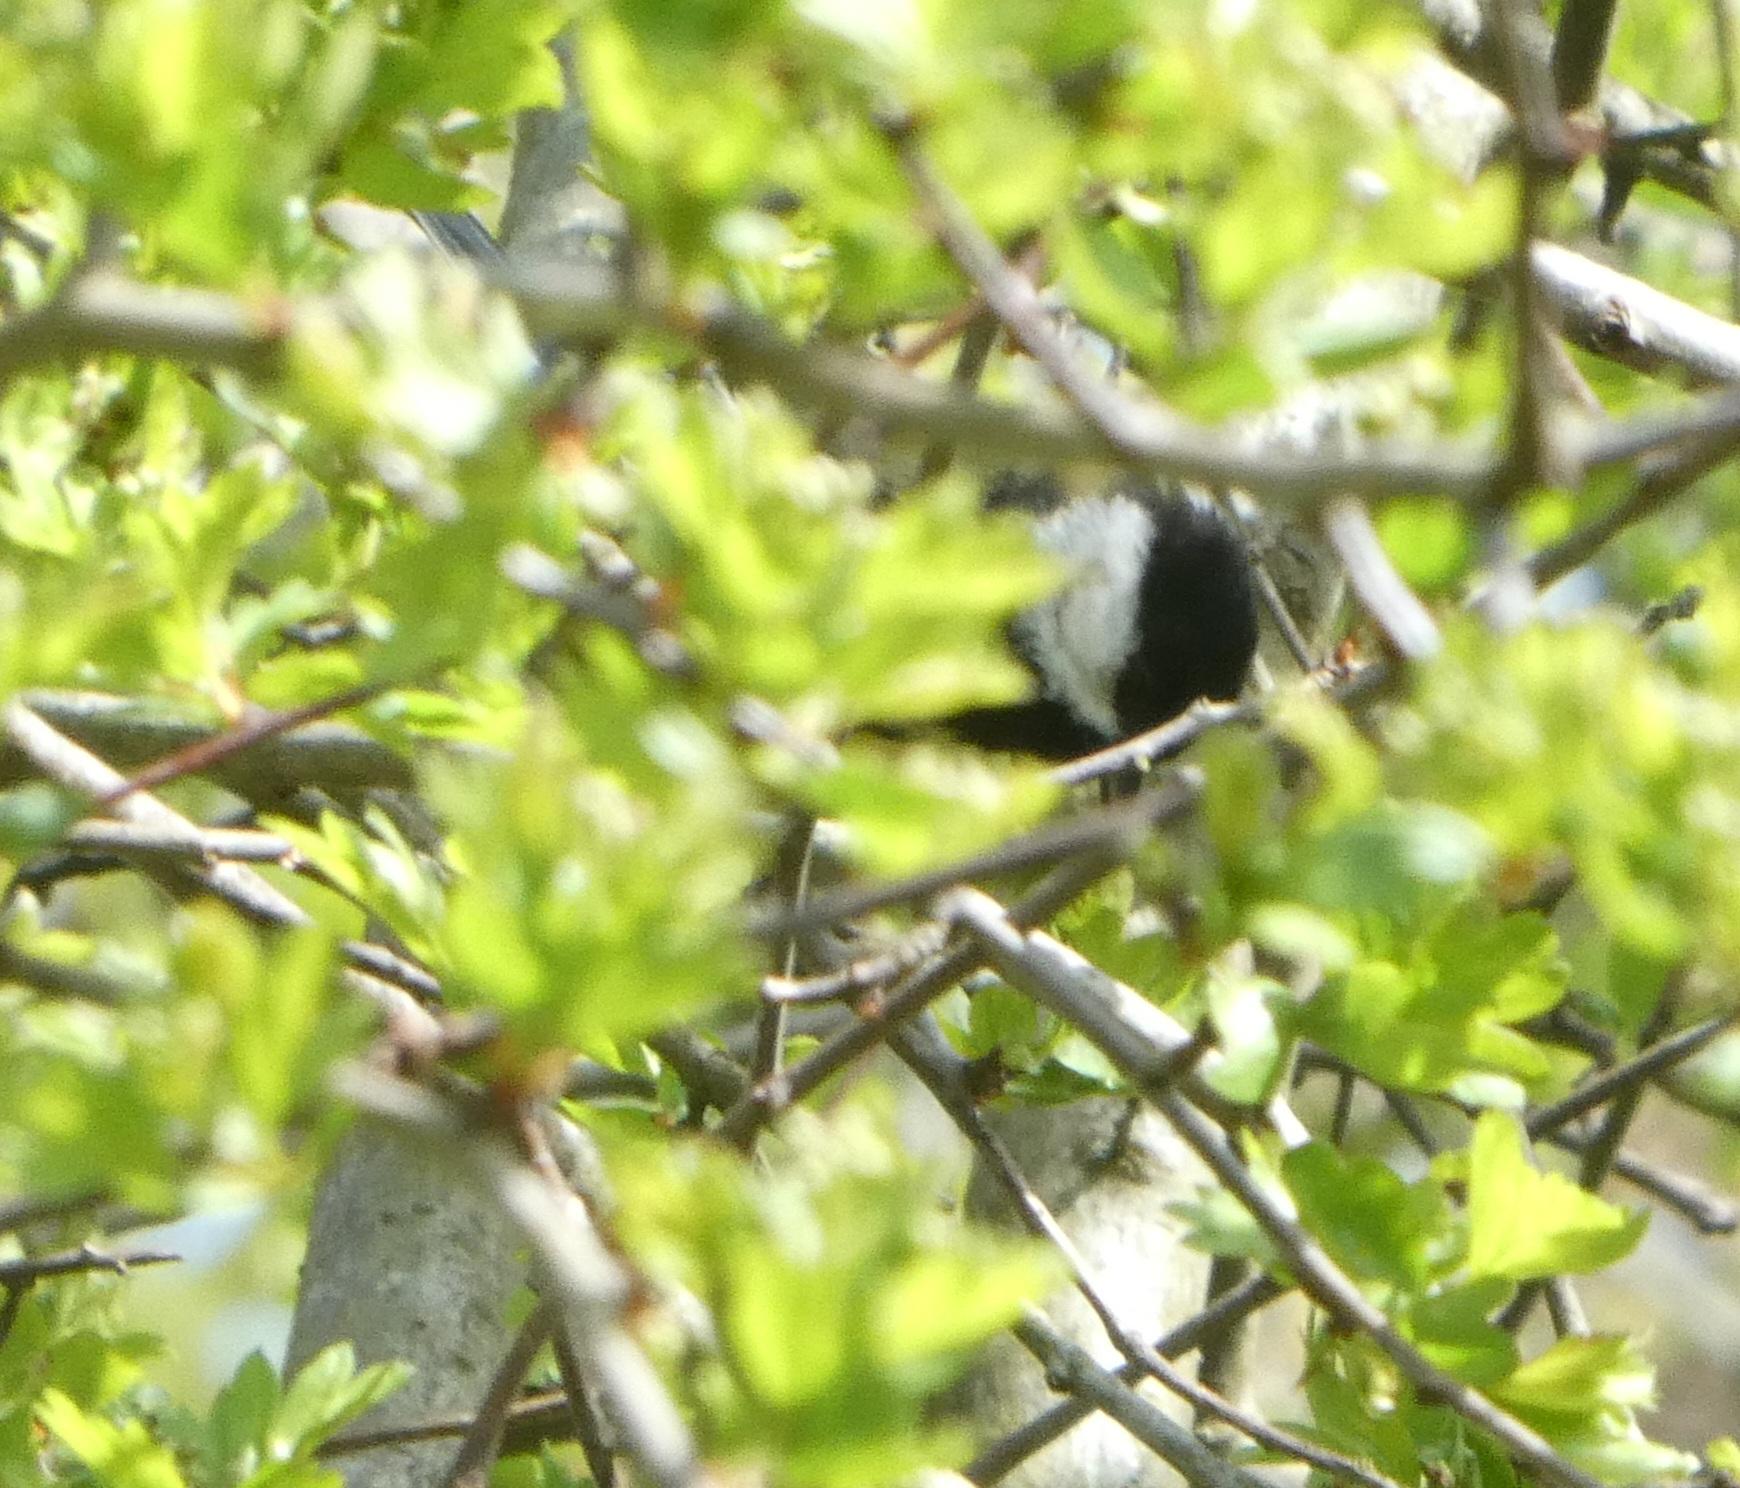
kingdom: Animalia
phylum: Chordata
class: Aves
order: Passeriformes
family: Paridae
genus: Parus
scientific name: Parus major
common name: Musvit
